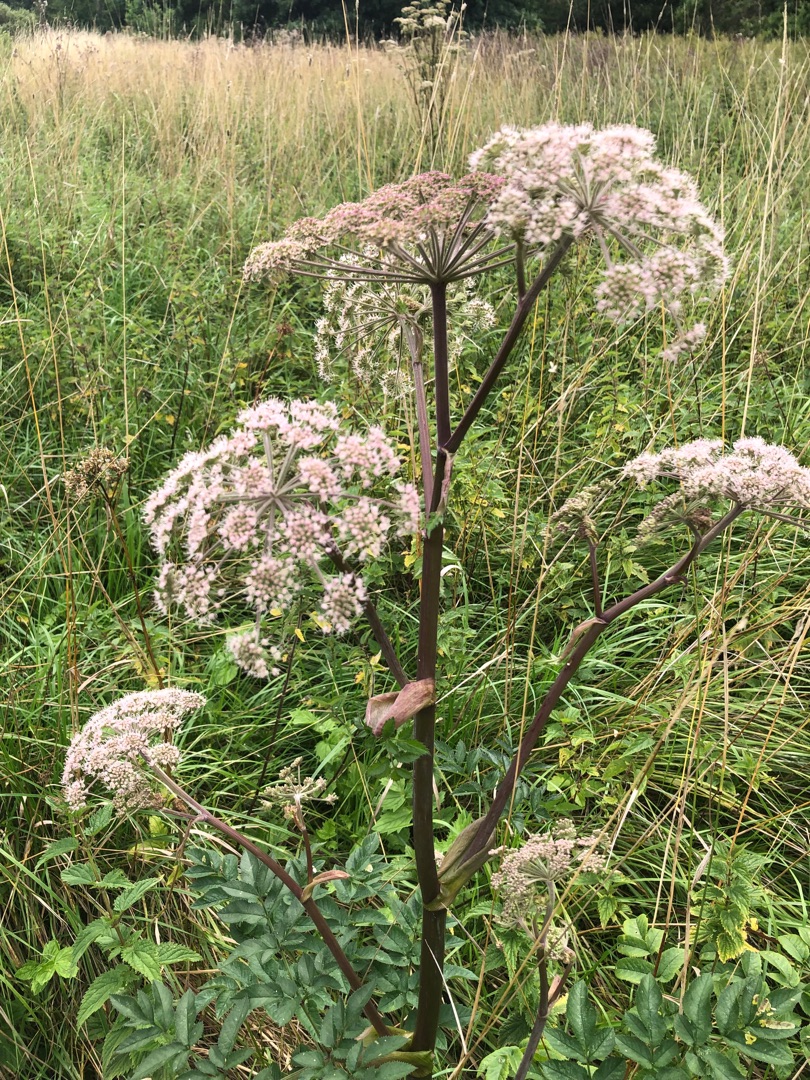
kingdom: Plantae
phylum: Tracheophyta
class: Magnoliopsida
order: Apiales
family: Apiaceae
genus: Angelica
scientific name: Angelica sylvestris
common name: Angelik
